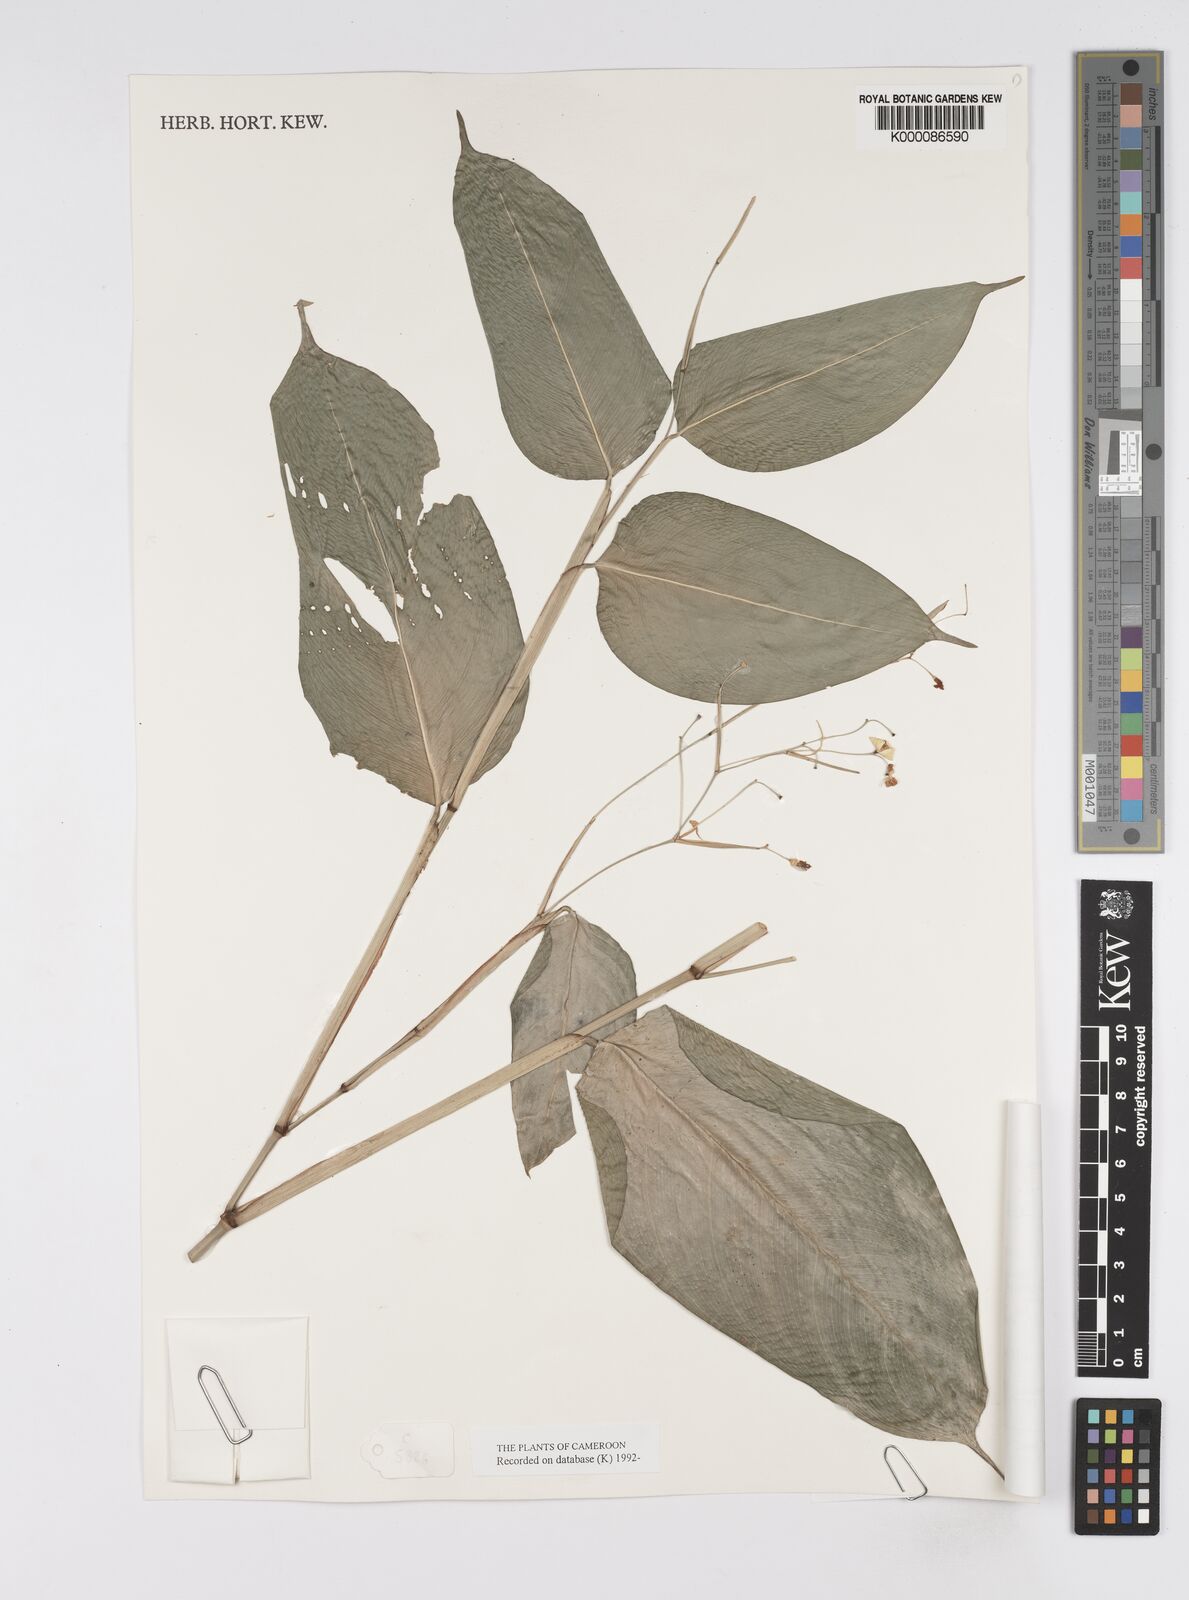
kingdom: Plantae
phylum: Tracheophyta
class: Liliopsida
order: Zingiberales
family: Marantaceae
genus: Marantochloa
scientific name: Marantochloa filipes
